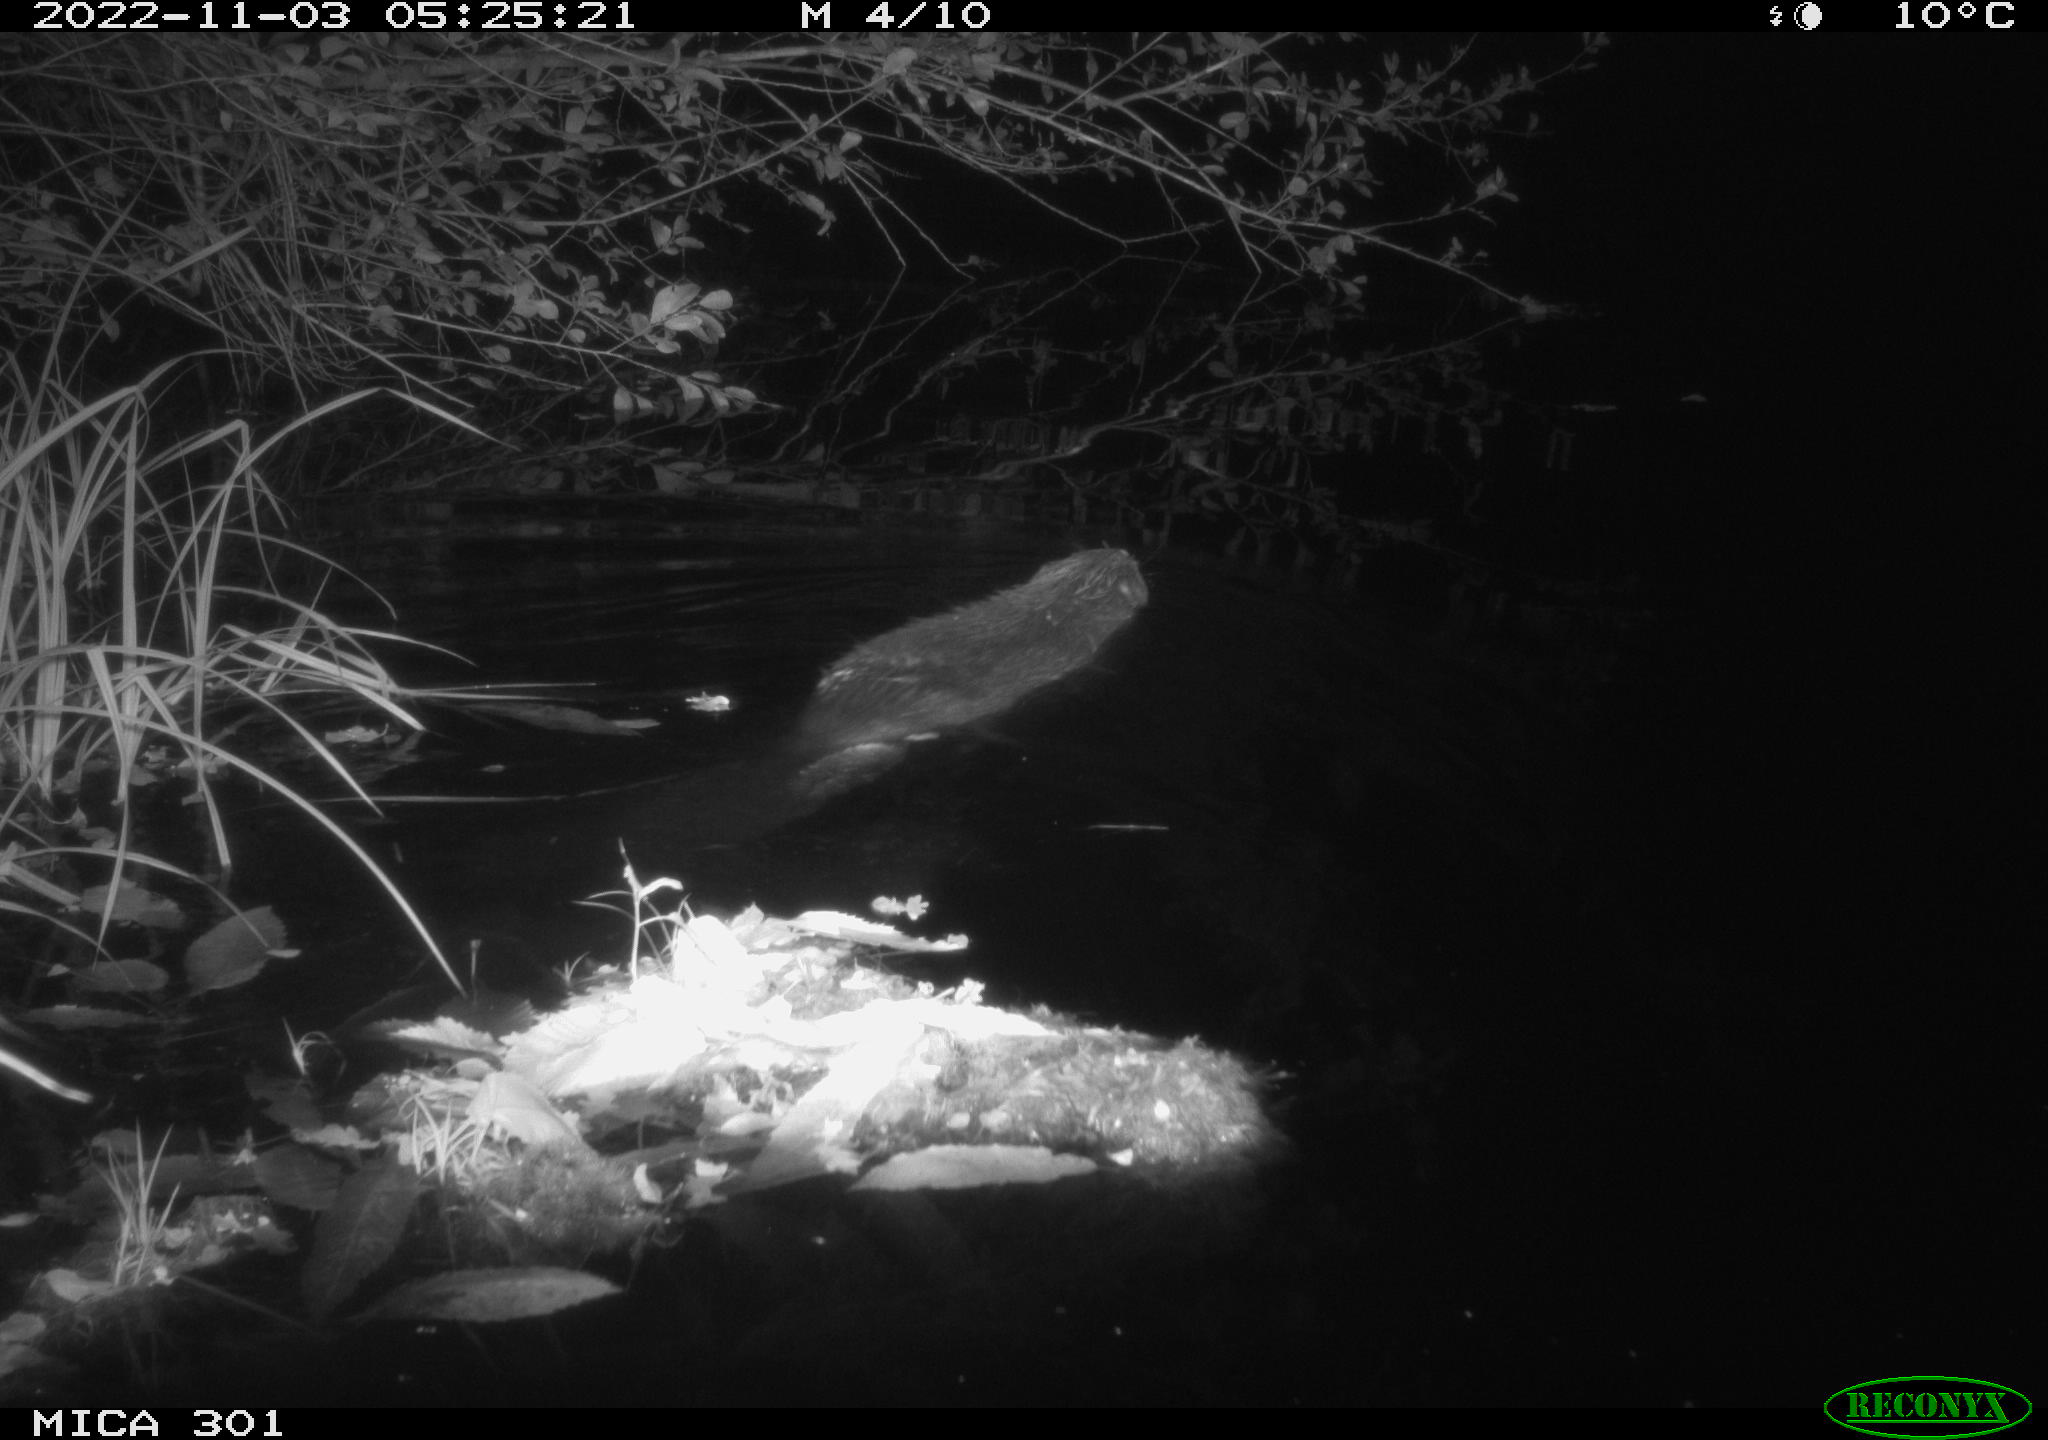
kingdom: Animalia
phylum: Chordata
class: Mammalia
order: Rodentia
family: Castoridae
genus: Castor
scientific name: Castor fiber
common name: Eurasian beaver
